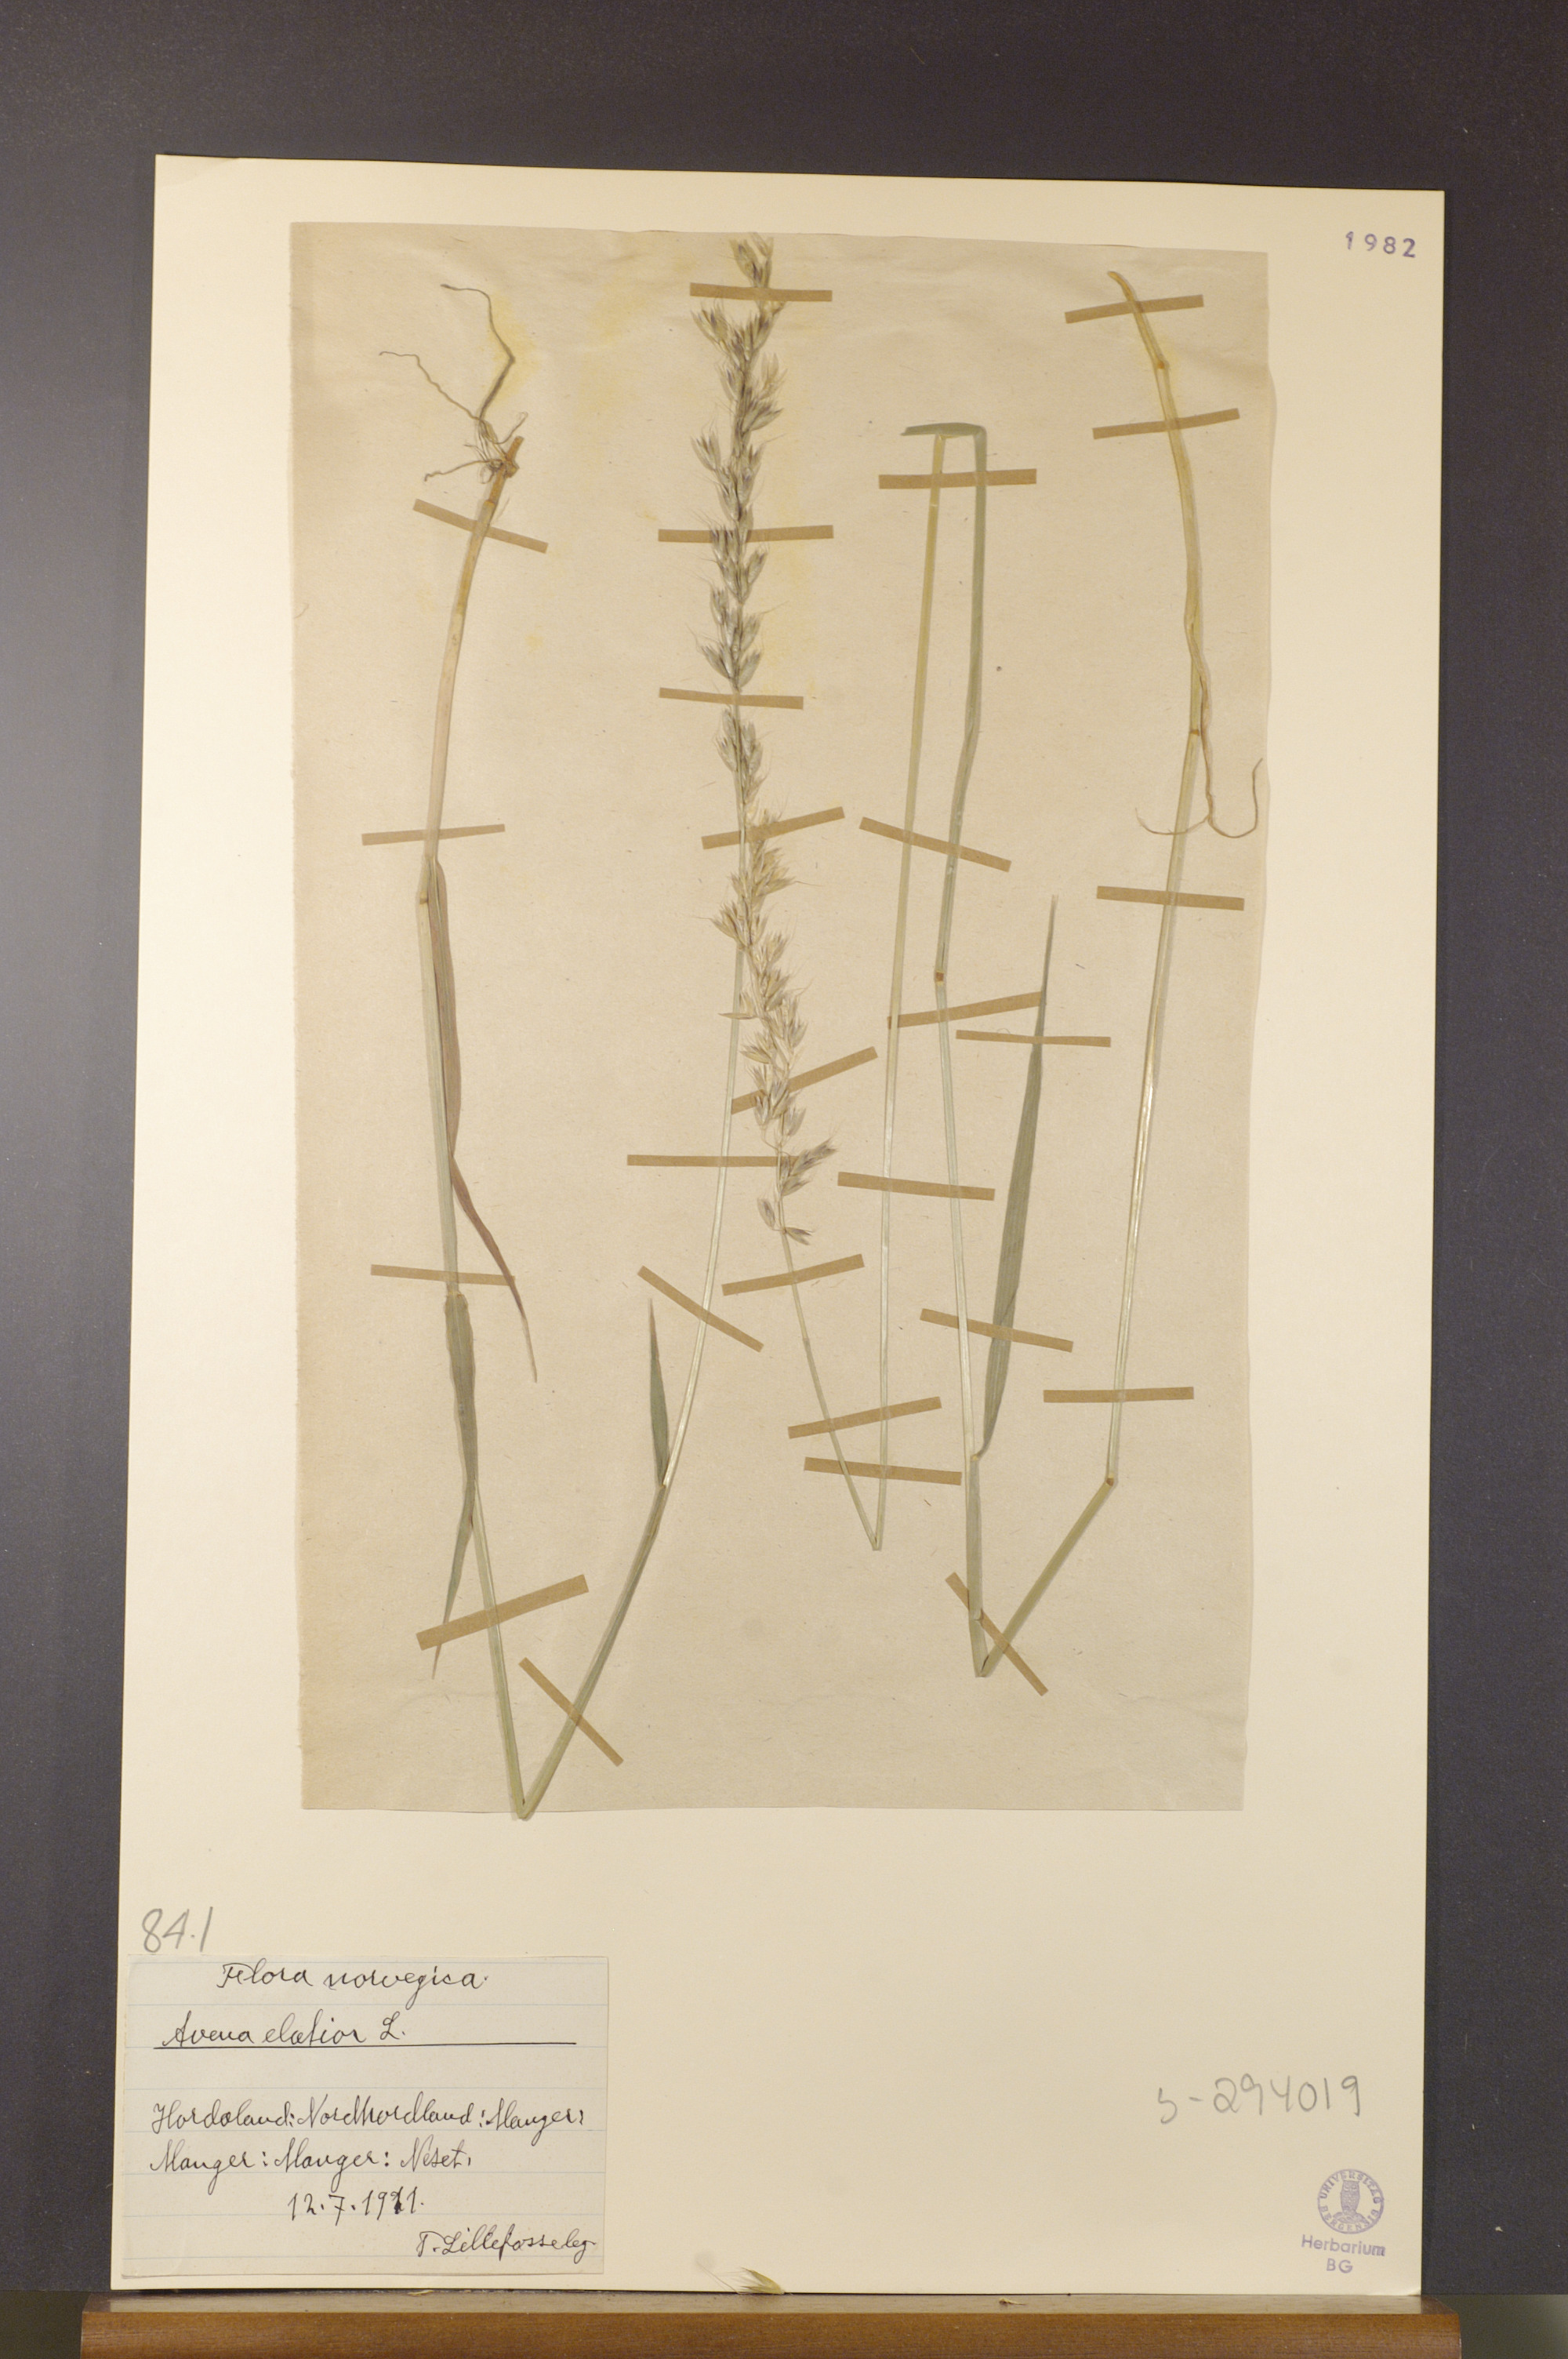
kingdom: Plantae
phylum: Tracheophyta
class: Liliopsida
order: Poales
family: Poaceae
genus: Arrhenatherum
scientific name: Arrhenatherum elatius
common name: Tall oatgrass
